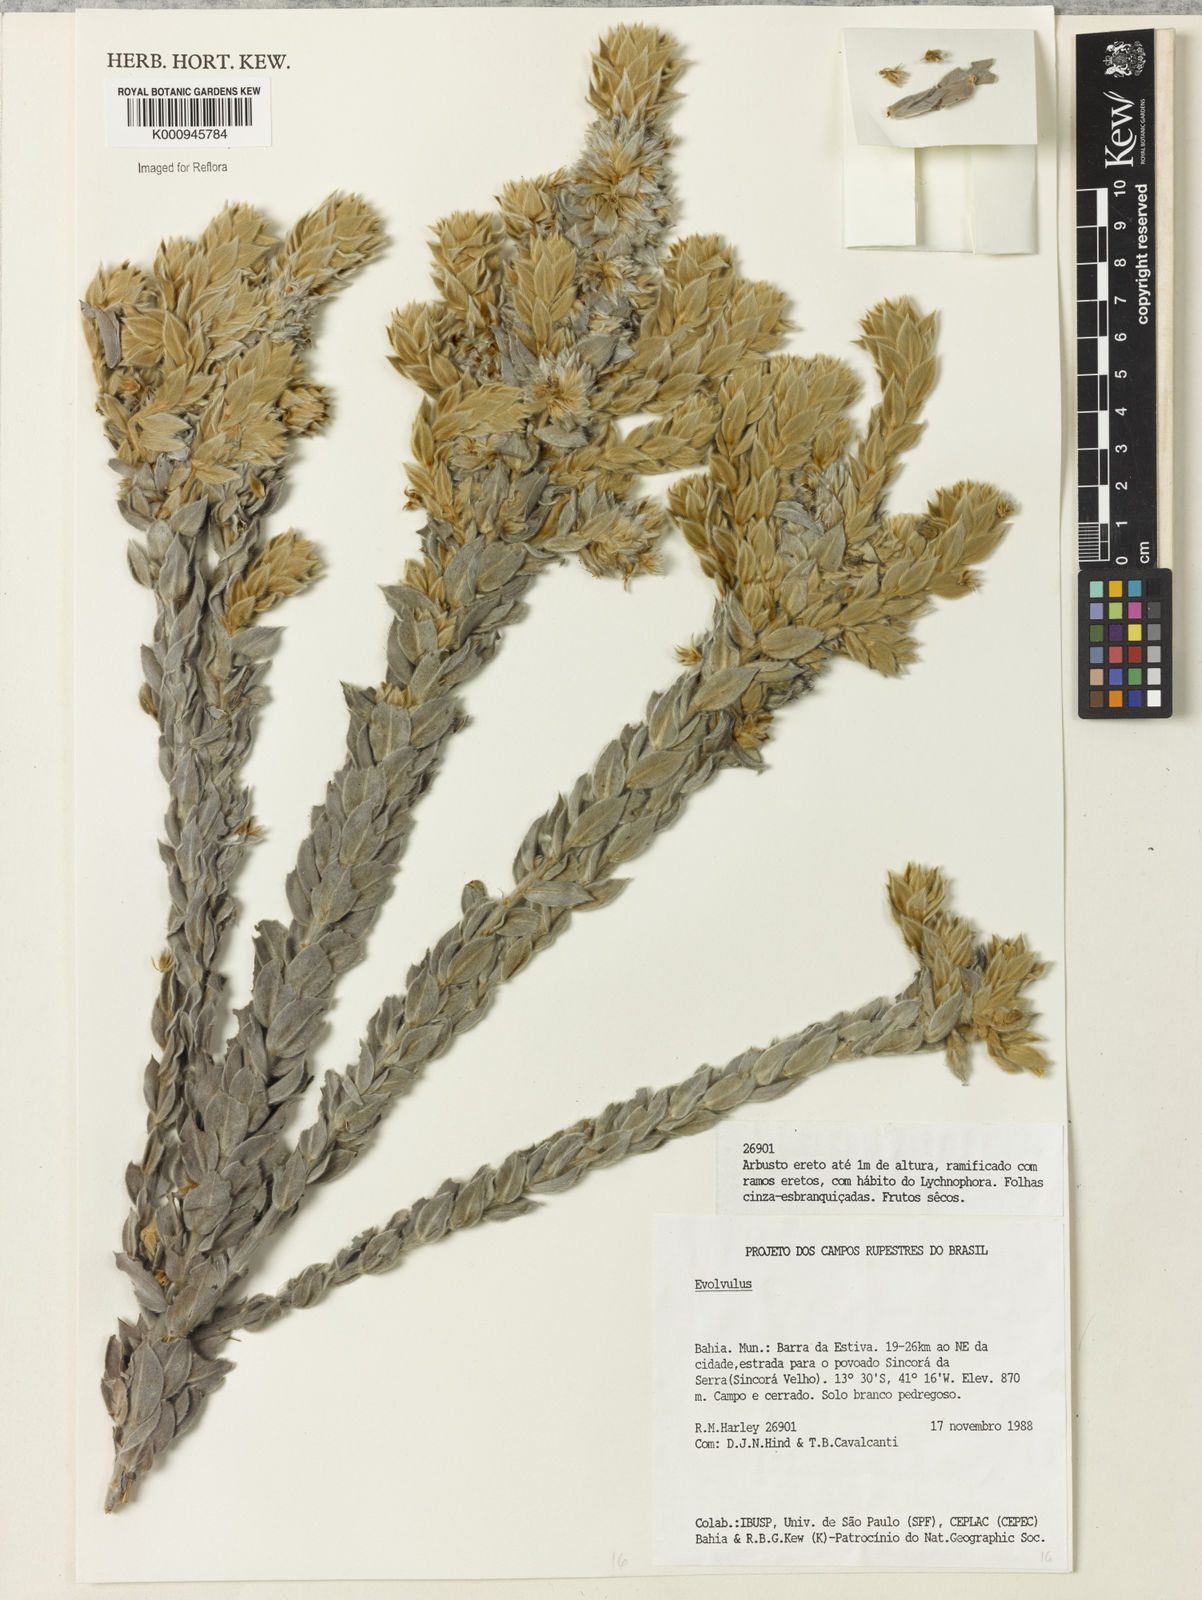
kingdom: Plantae
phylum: Tracheophyta
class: Magnoliopsida
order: Solanales
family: Convolvulaceae
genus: Evolvulus
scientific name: Evolvulus
